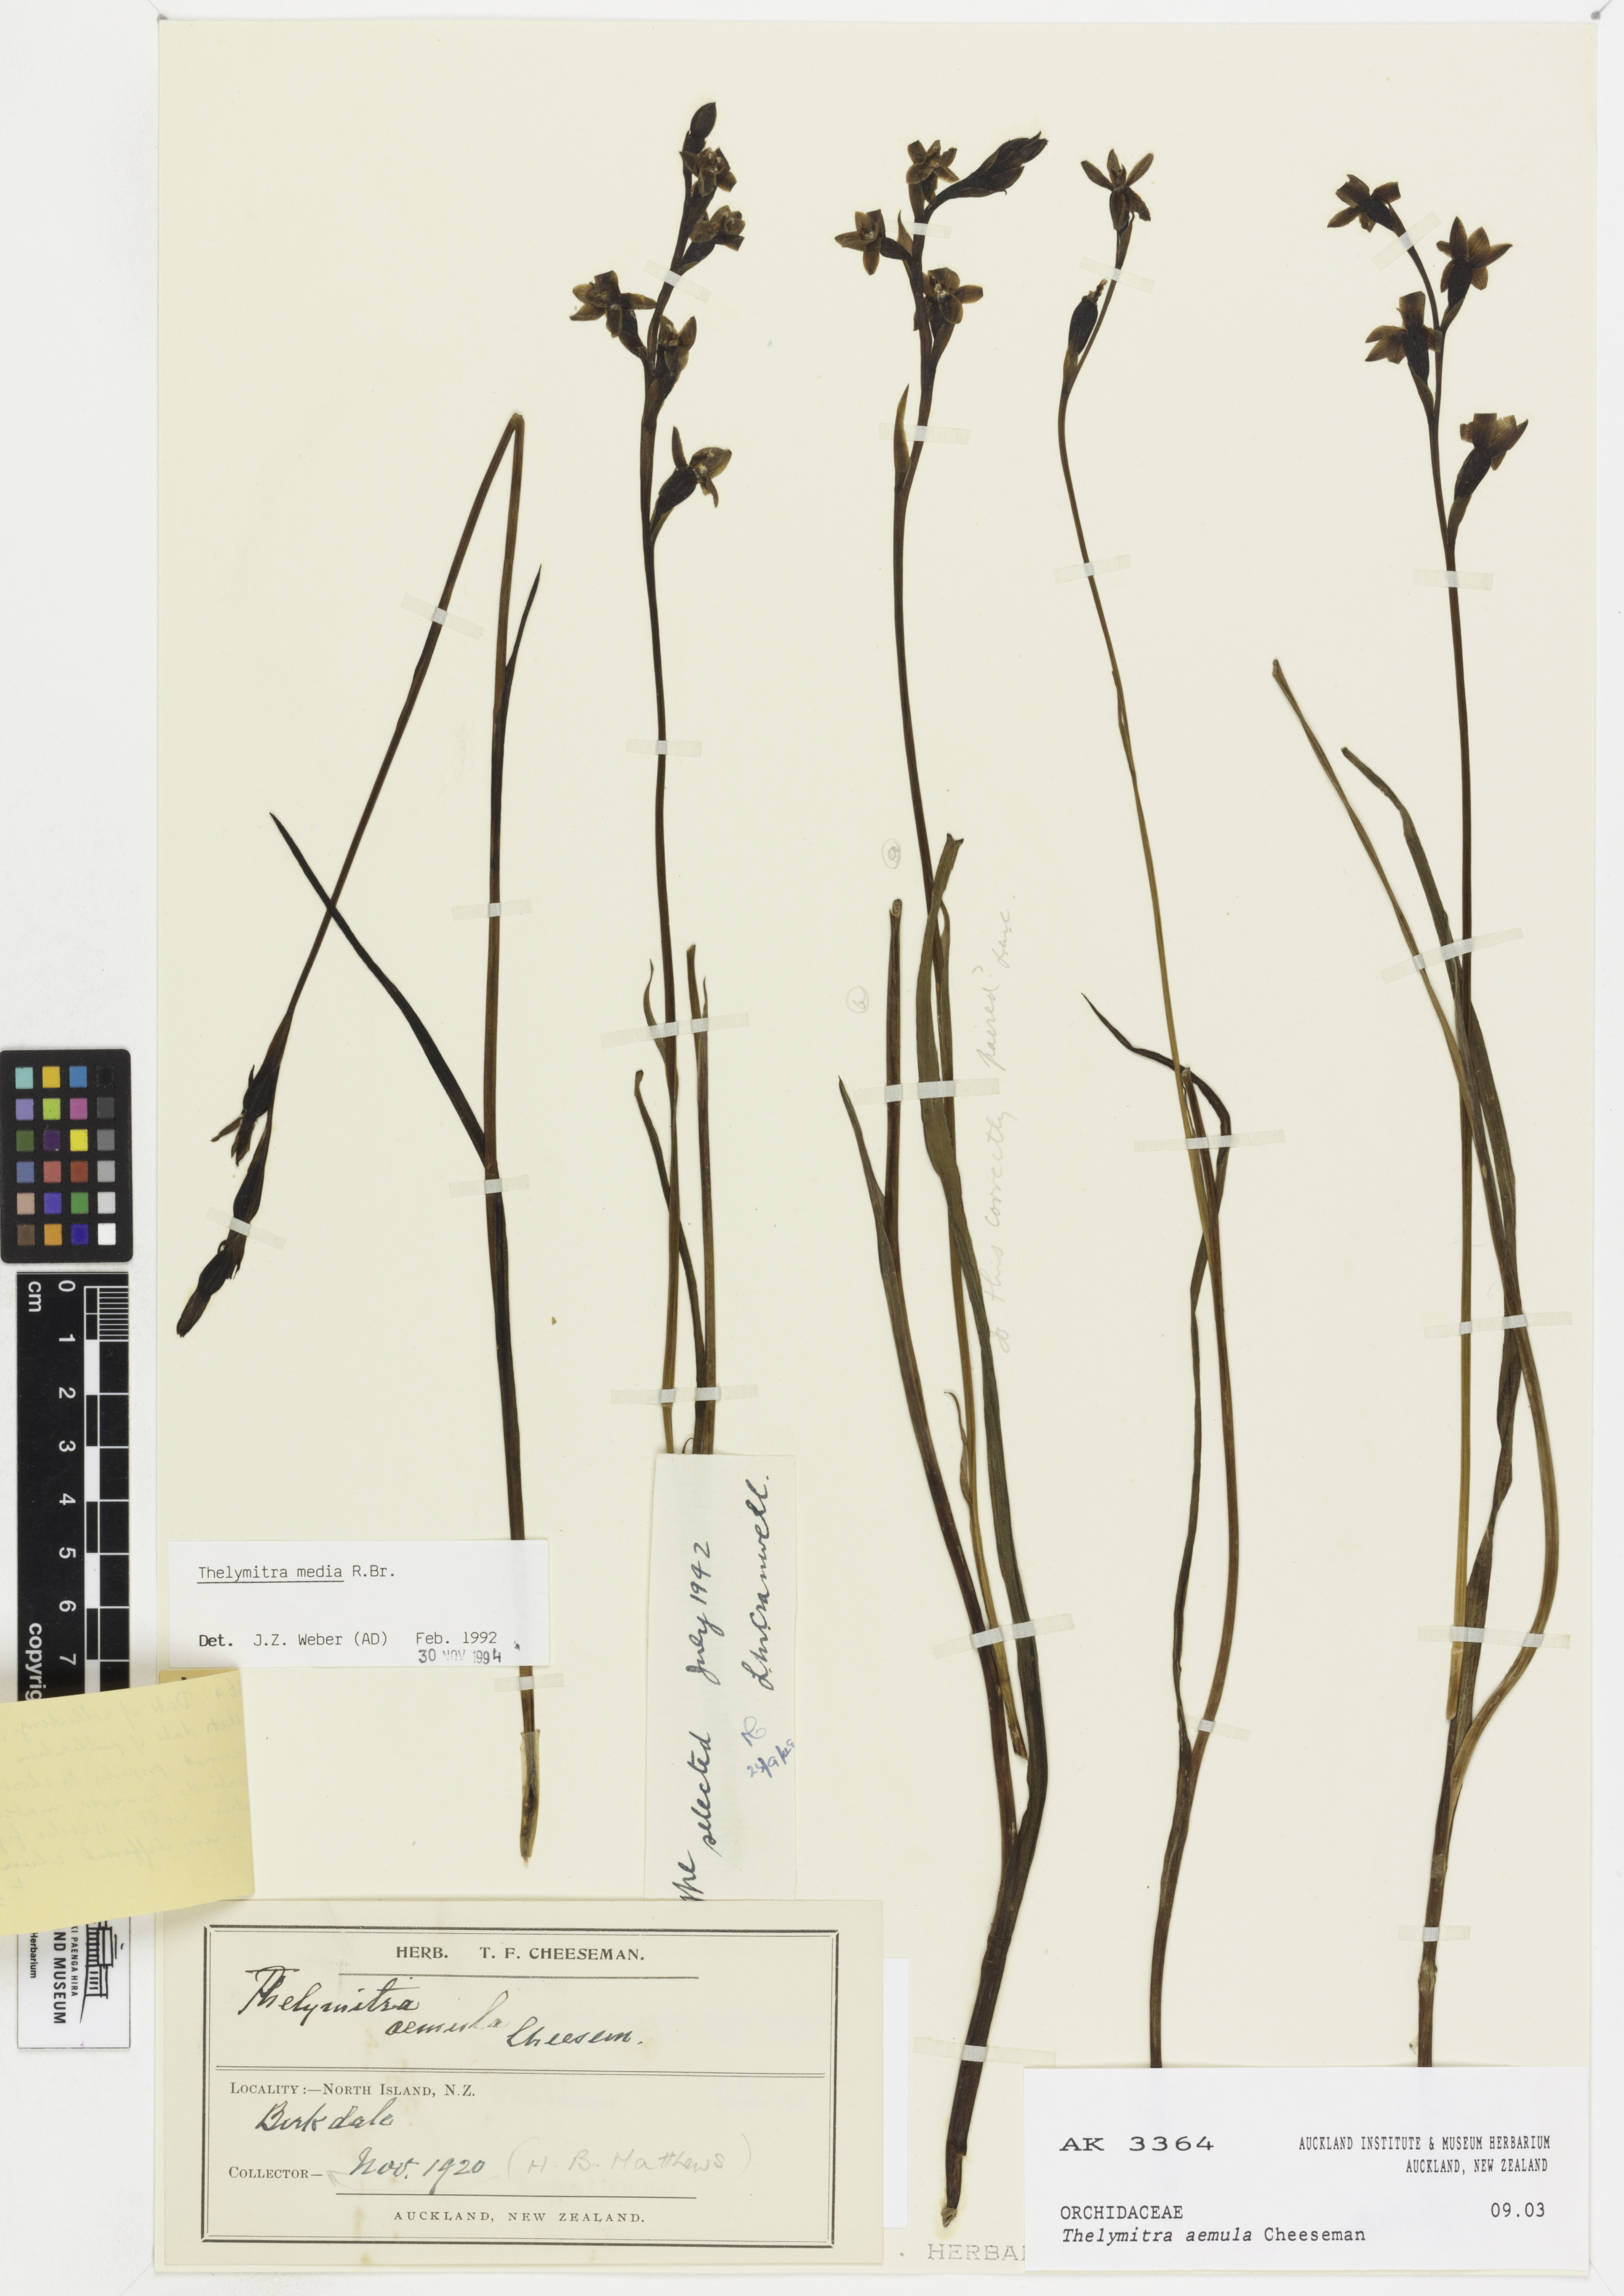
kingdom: Plantae
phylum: Tracheophyta
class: Liliopsida
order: Asparagales
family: Orchidaceae
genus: Thelymitra
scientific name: Thelymitra aemula
